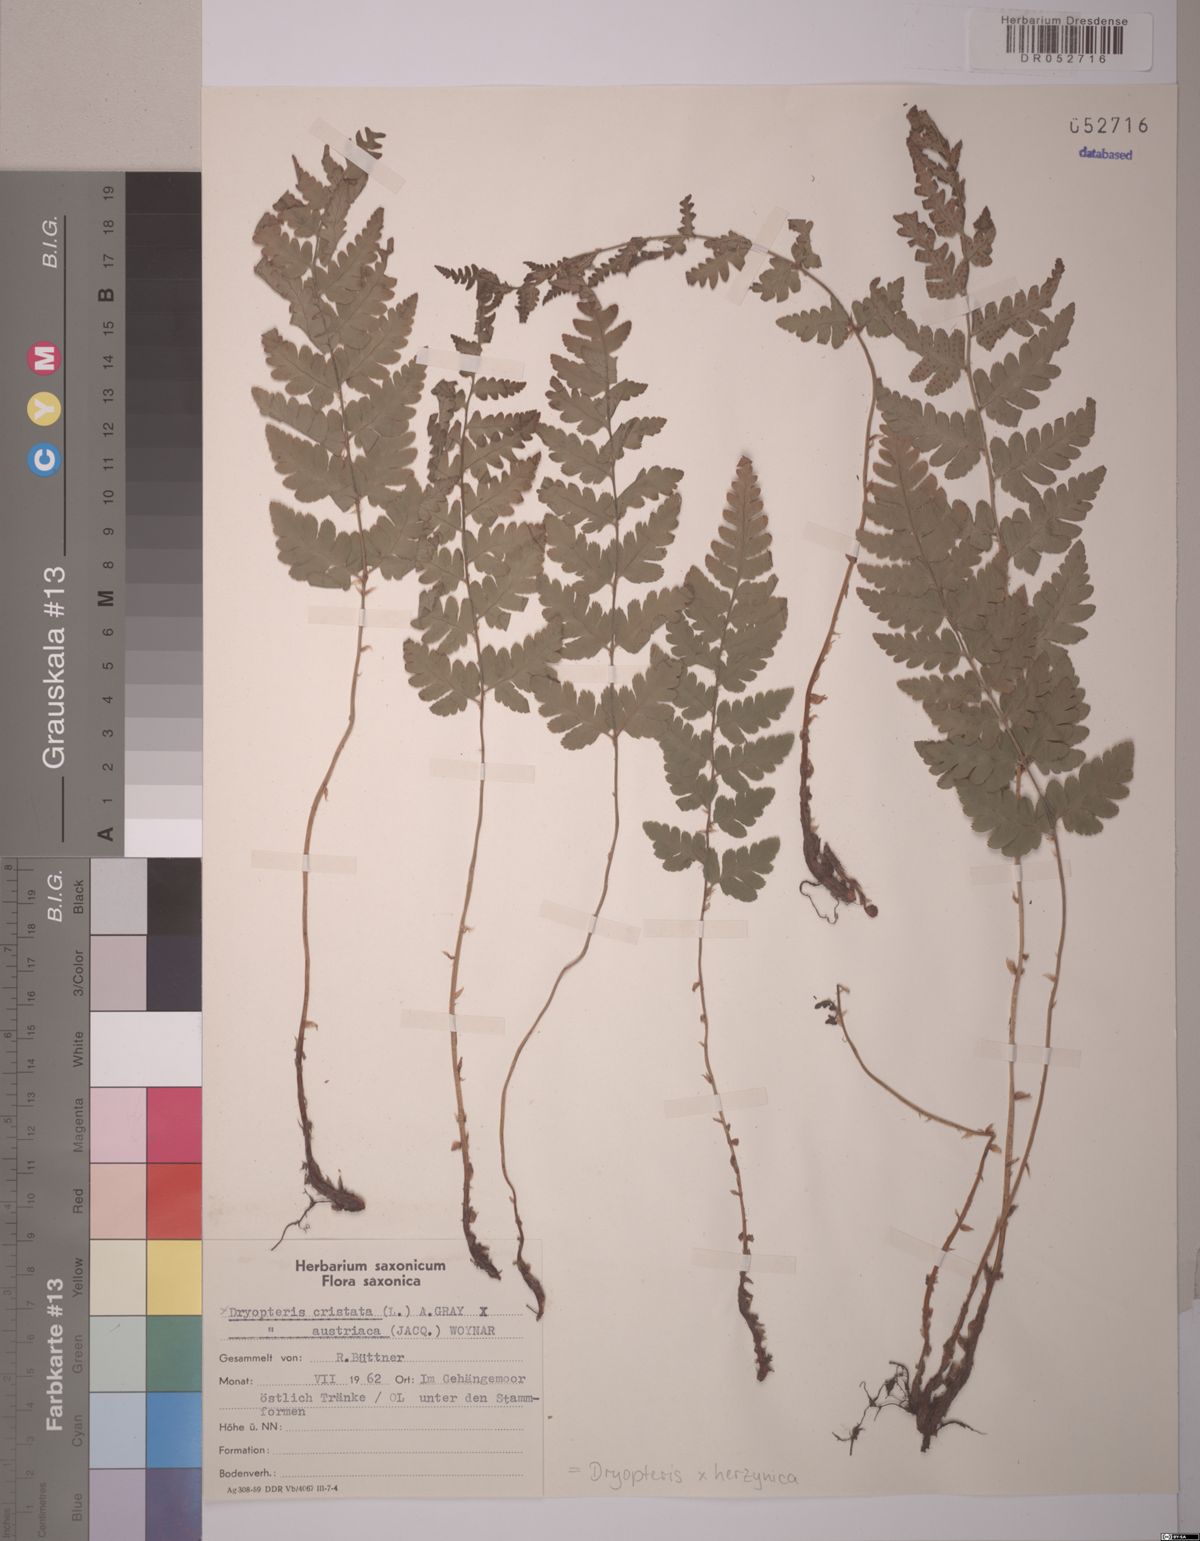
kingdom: Plantae
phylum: Tracheophyta
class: Polypodiopsida
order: Polypodiales
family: Dryopteridaceae
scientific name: Dryopteridaceae
